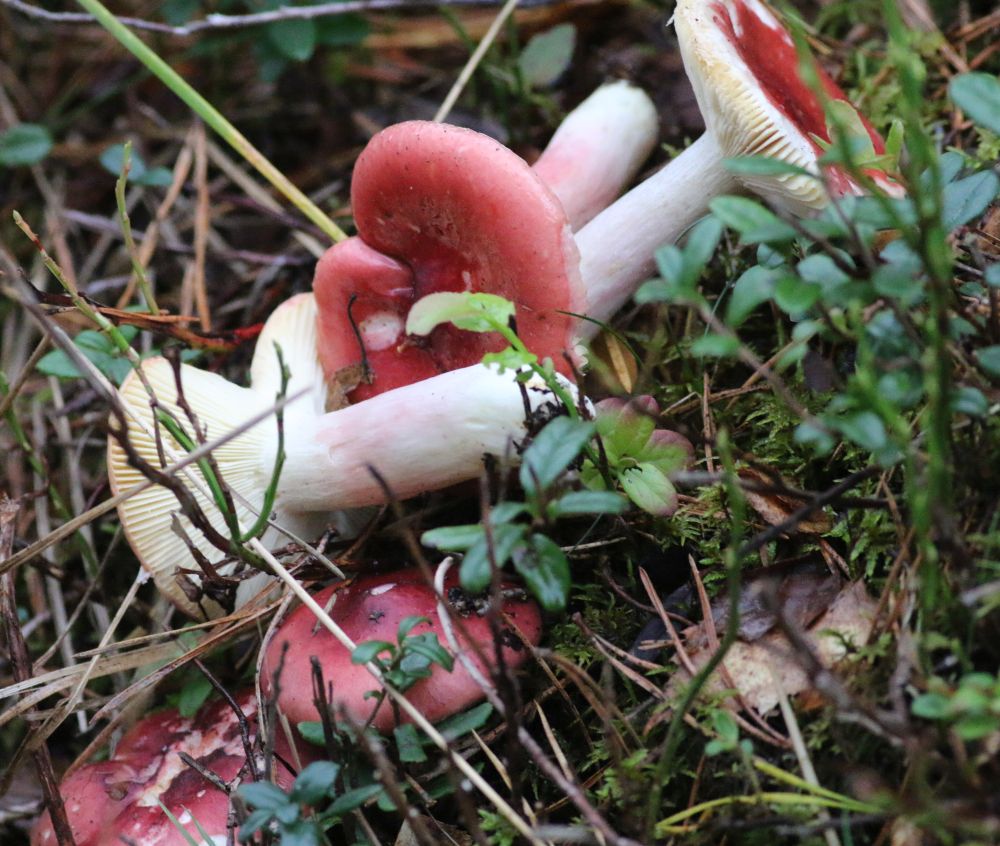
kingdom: Fungi
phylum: Basidiomycota
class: Agaricomycetes
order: Russulales
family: Russulaceae
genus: Russula
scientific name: Russula
